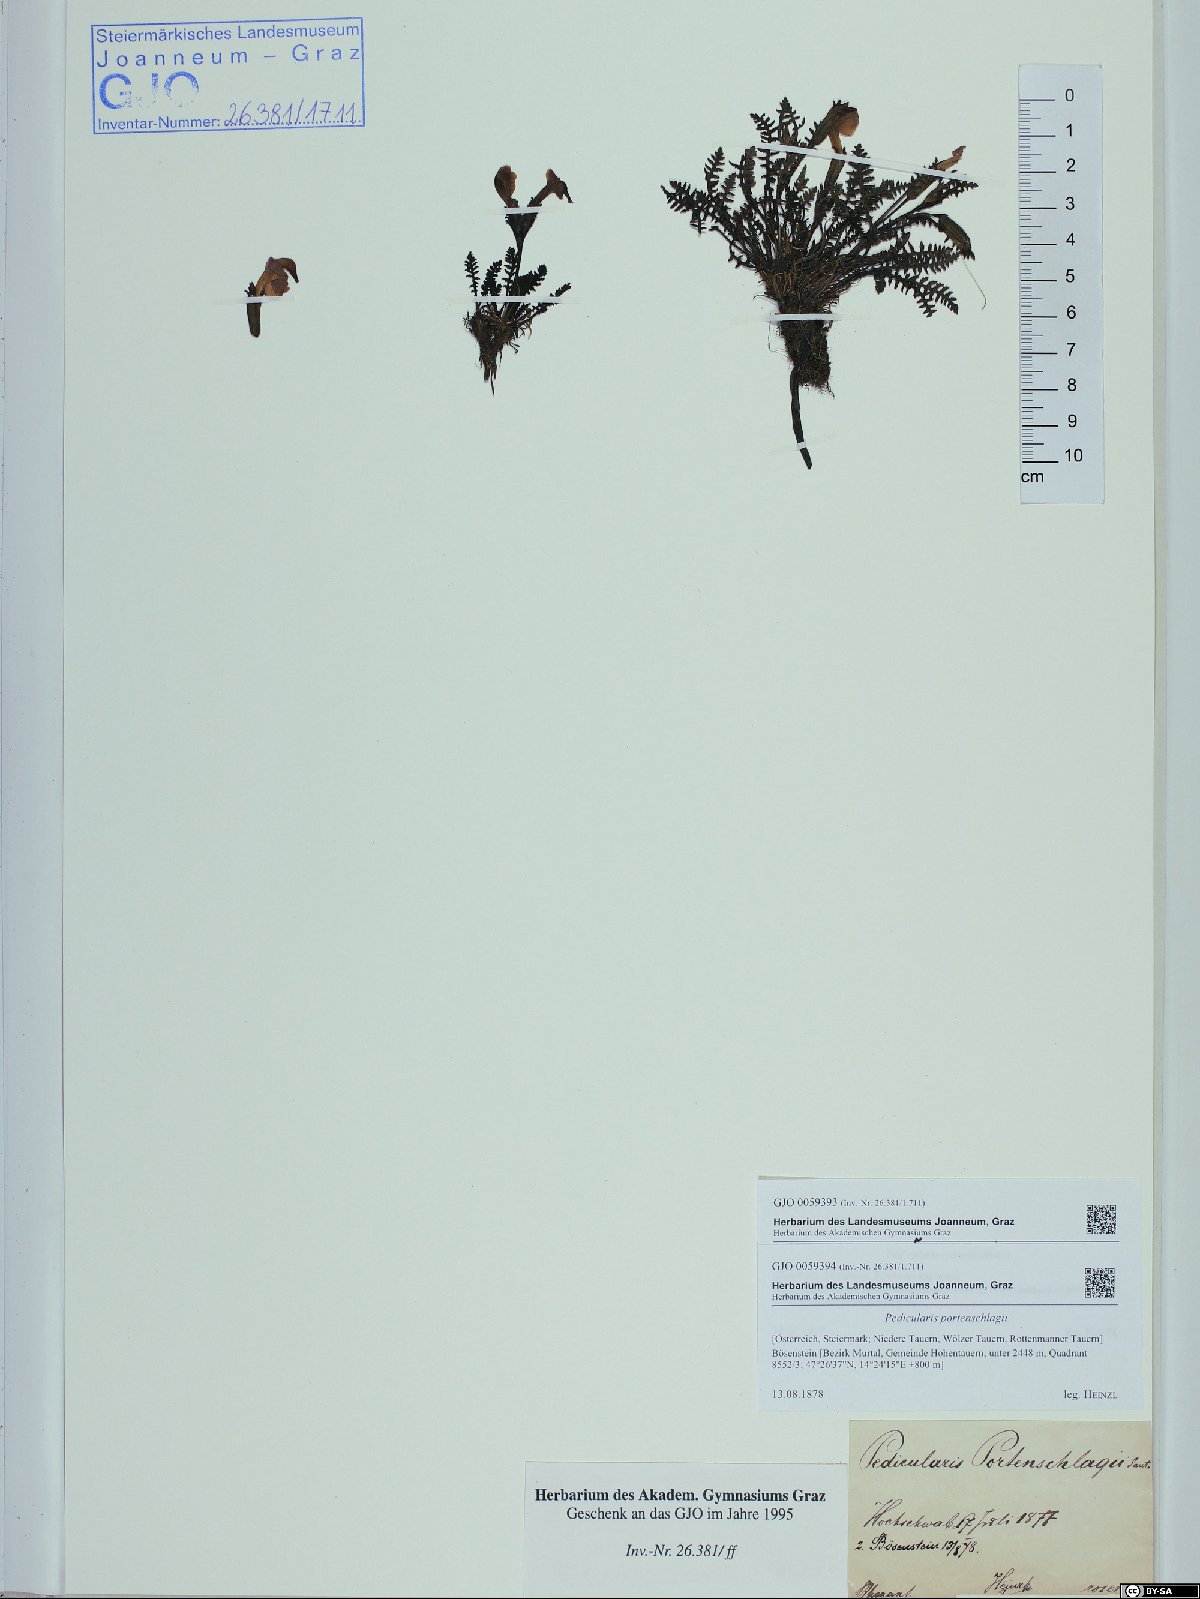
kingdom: Plantae
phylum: Tracheophyta
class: Magnoliopsida
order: Lamiales
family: Orobanchaceae
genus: Pedicularis
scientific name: Pedicularis portenschlagii
